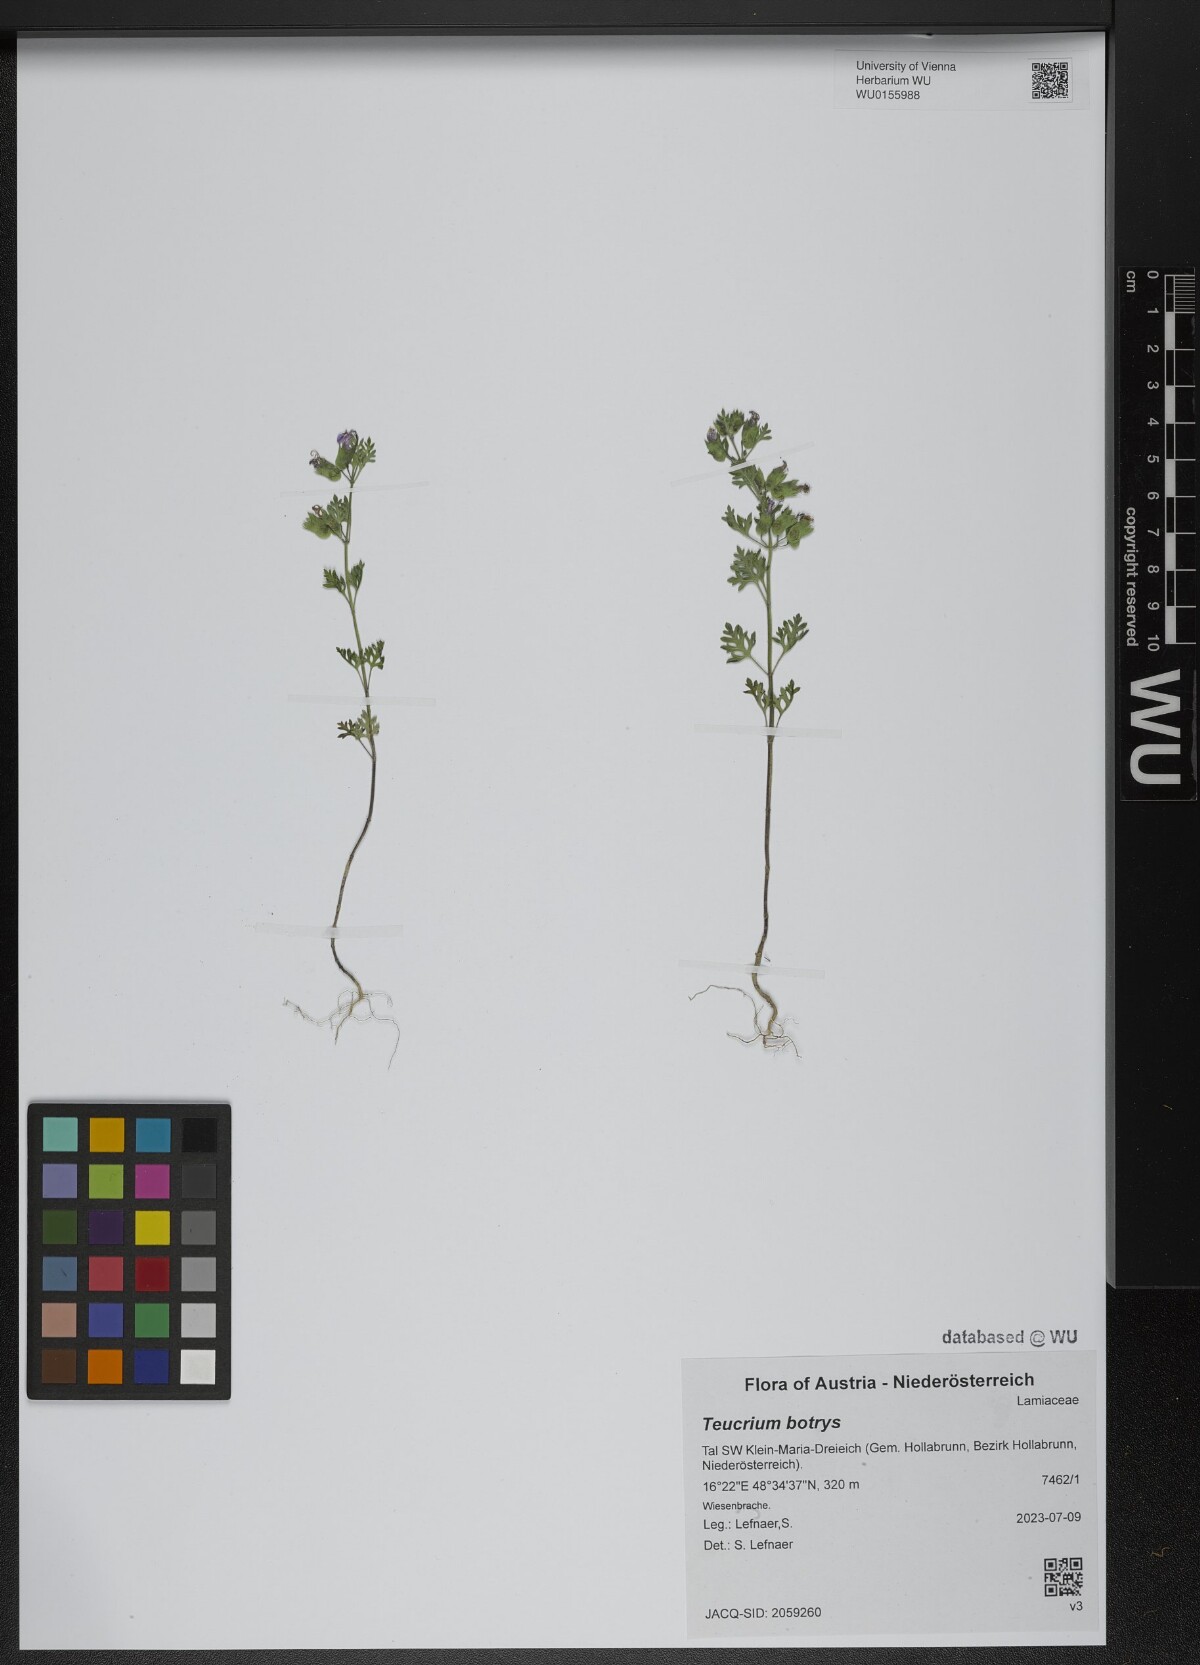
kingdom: Plantae
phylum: Tracheophyta
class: Magnoliopsida
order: Lamiales
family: Lamiaceae
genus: Teucrium
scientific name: Teucrium botrys
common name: Cut-leaved germander
